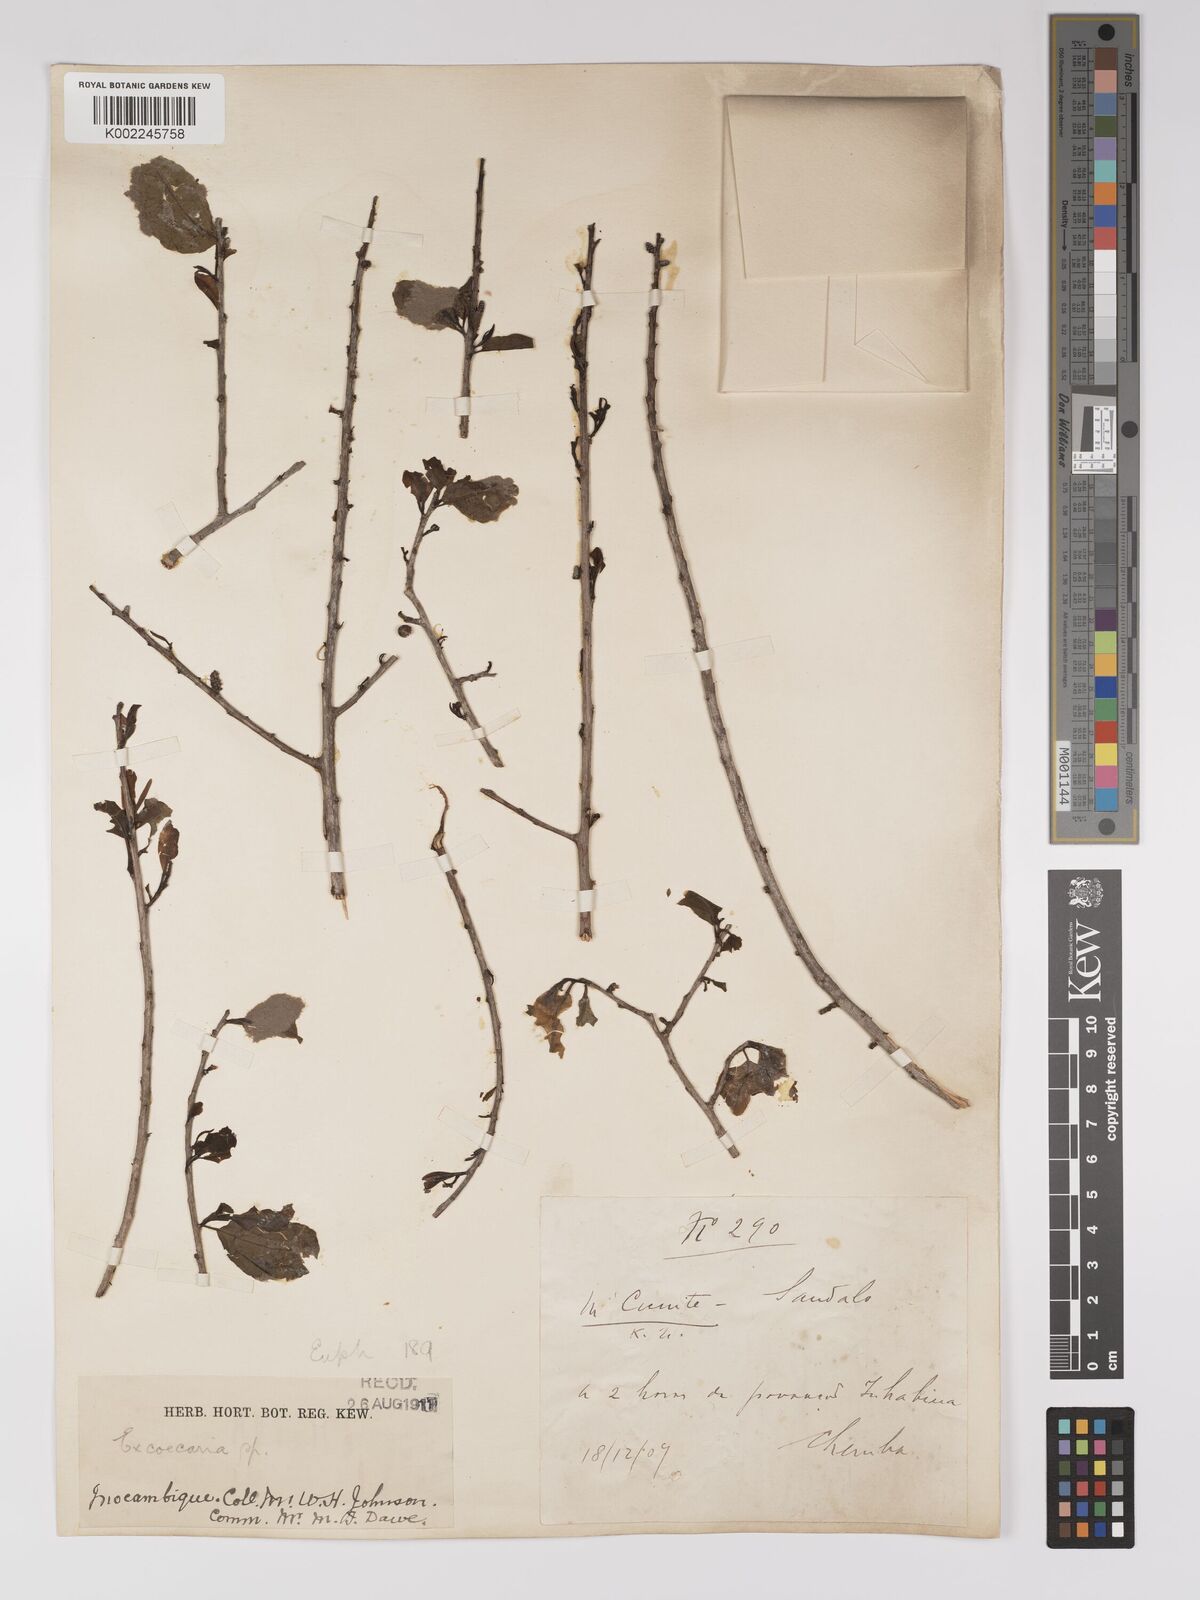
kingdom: Plantae
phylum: Tracheophyta
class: Magnoliopsida
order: Malpighiales
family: Euphorbiaceae
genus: Spirostachys
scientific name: Spirostachys africana
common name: Tamboti
